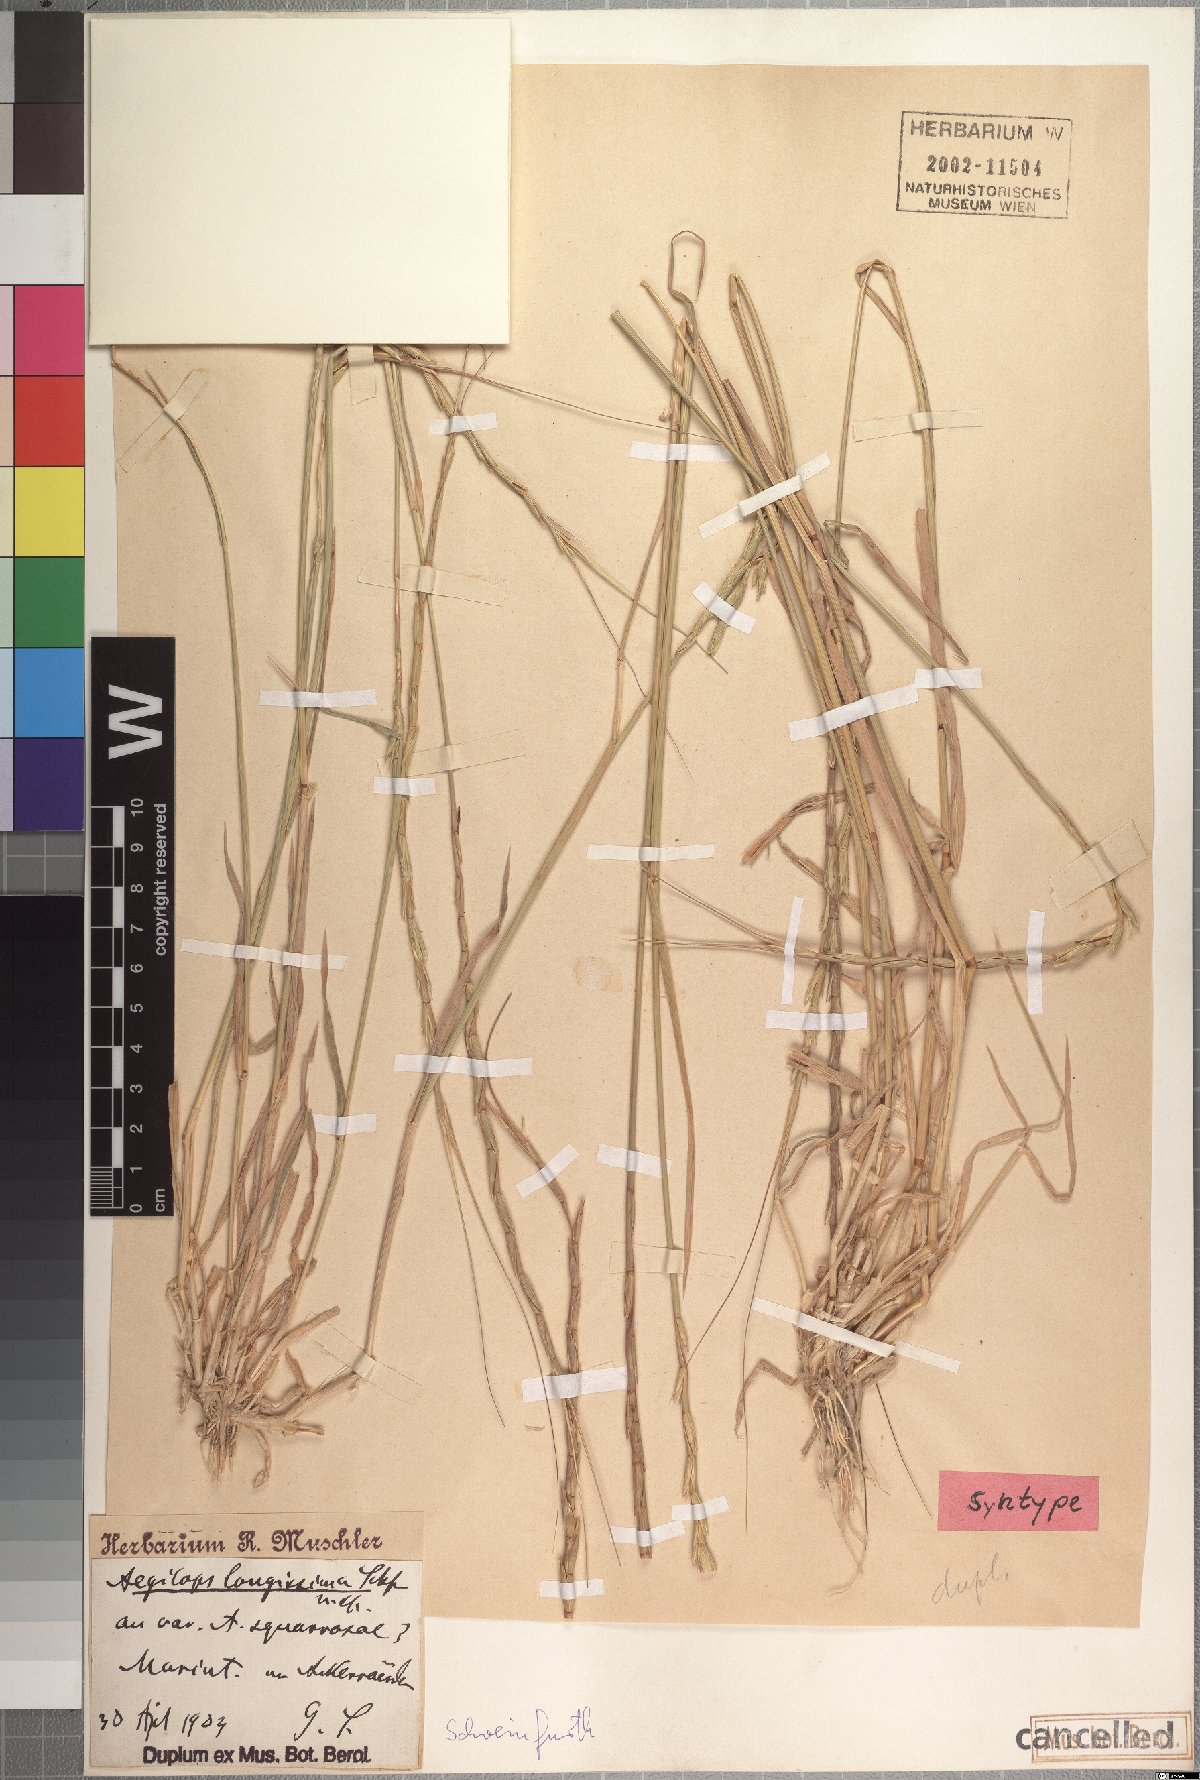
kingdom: Plantae
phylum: Tracheophyta
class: Liliopsida
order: Poales
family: Poaceae
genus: Aegilops
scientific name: Aegilops longissima
